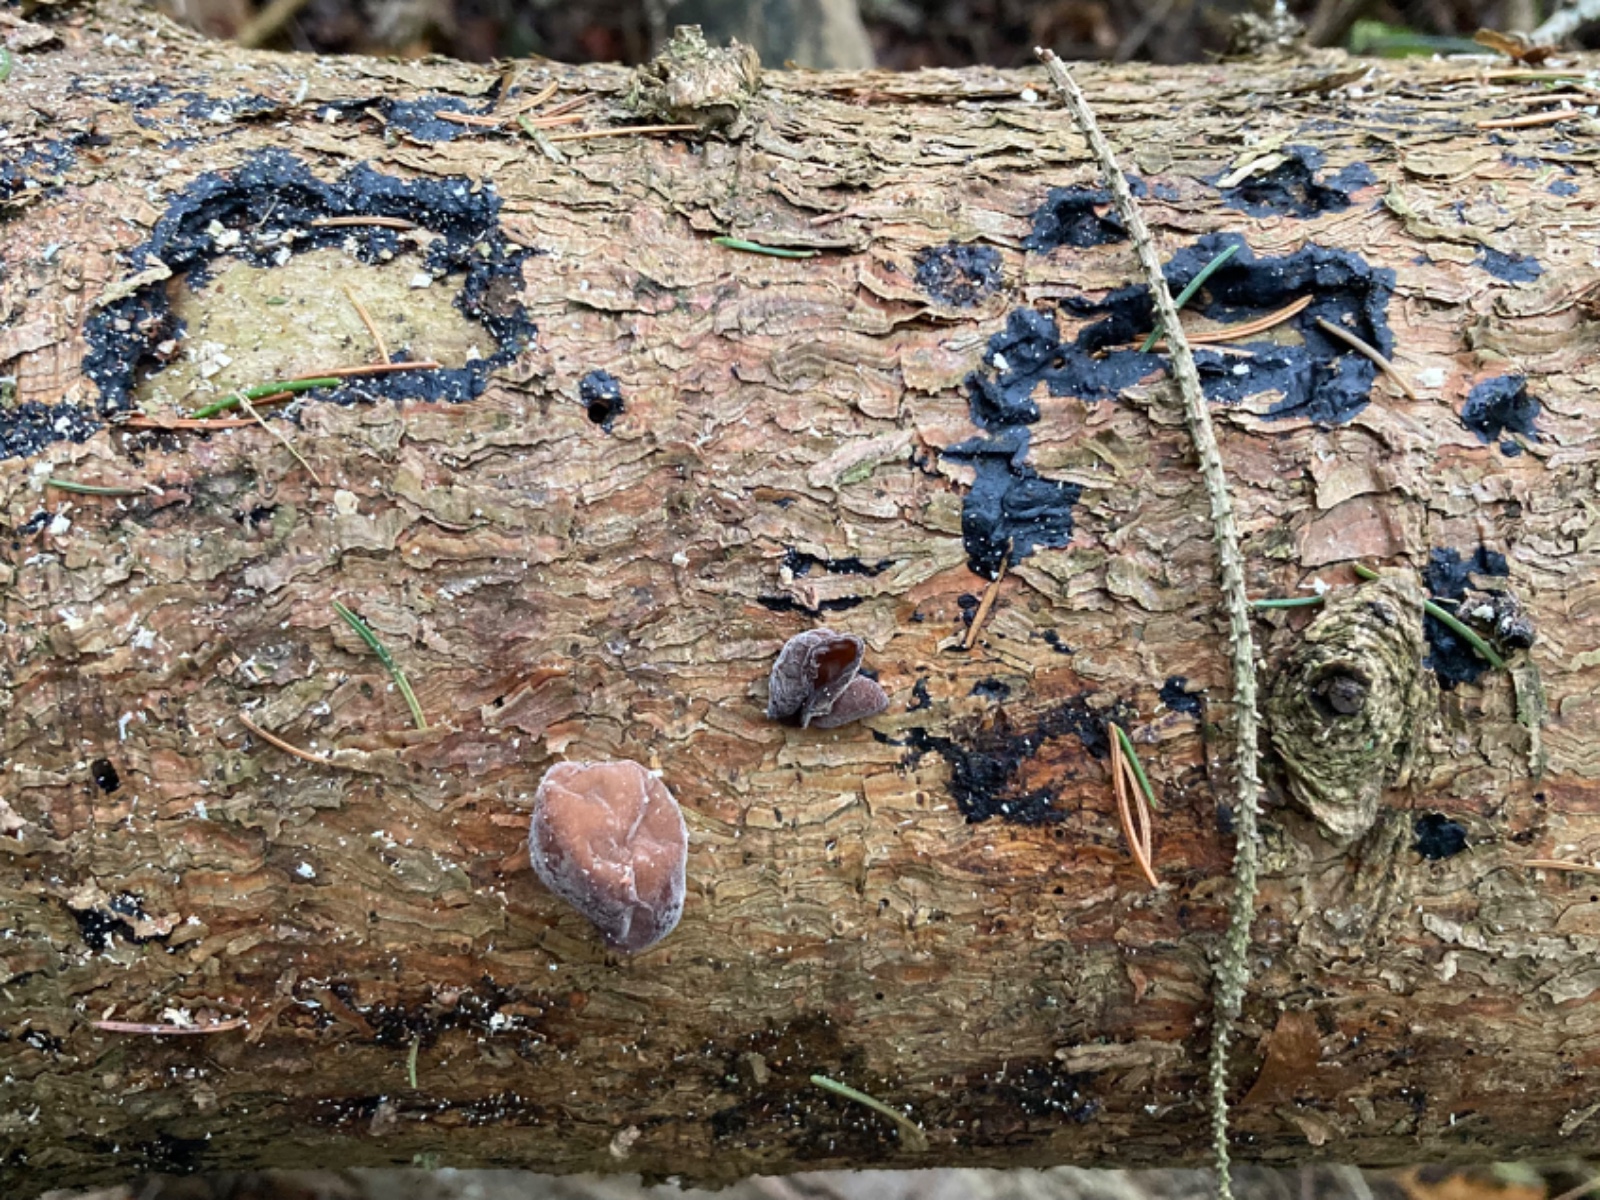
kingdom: Fungi
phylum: Basidiomycota
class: Agaricomycetes
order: Auriculariales
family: Auriculariaceae
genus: Exidia
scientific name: Exidia pithya
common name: gran-bævretop
